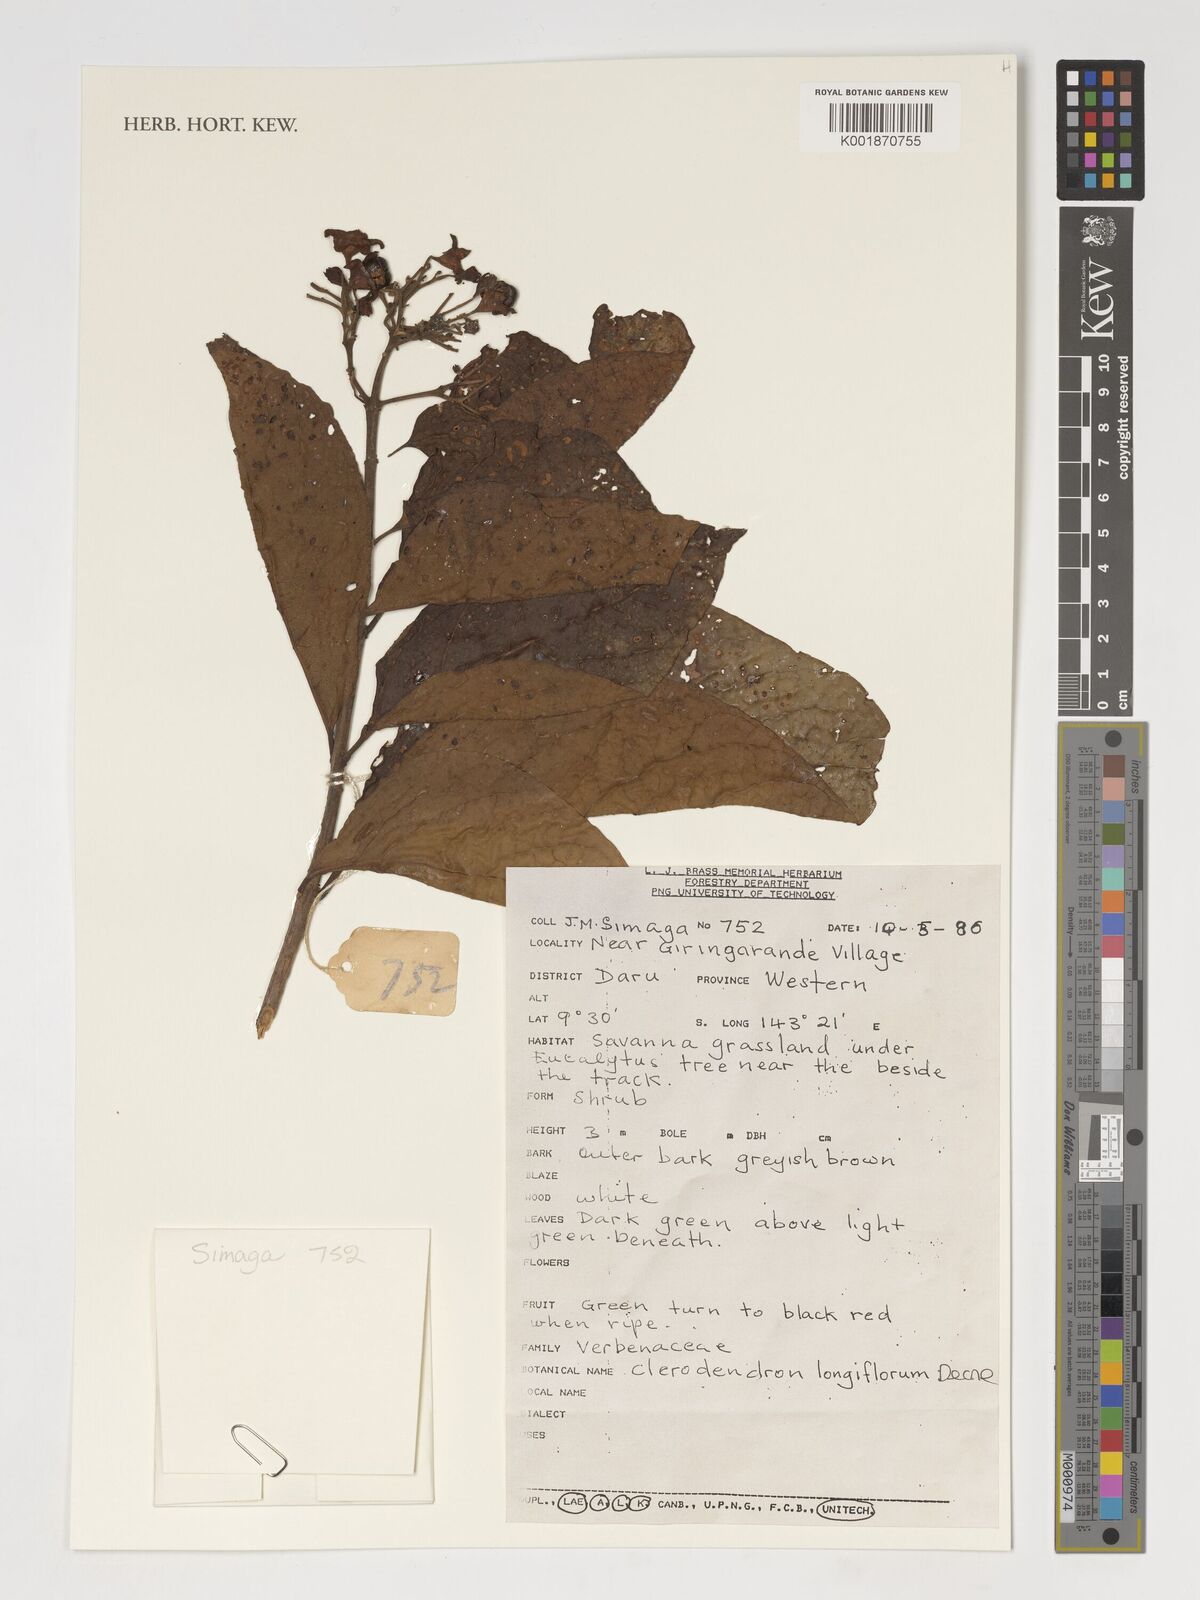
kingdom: Plantae
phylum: Tracheophyta
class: Magnoliopsida
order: Lamiales
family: Lamiaceae
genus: Clerodendrum
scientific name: Clerodendrum longiflorum
